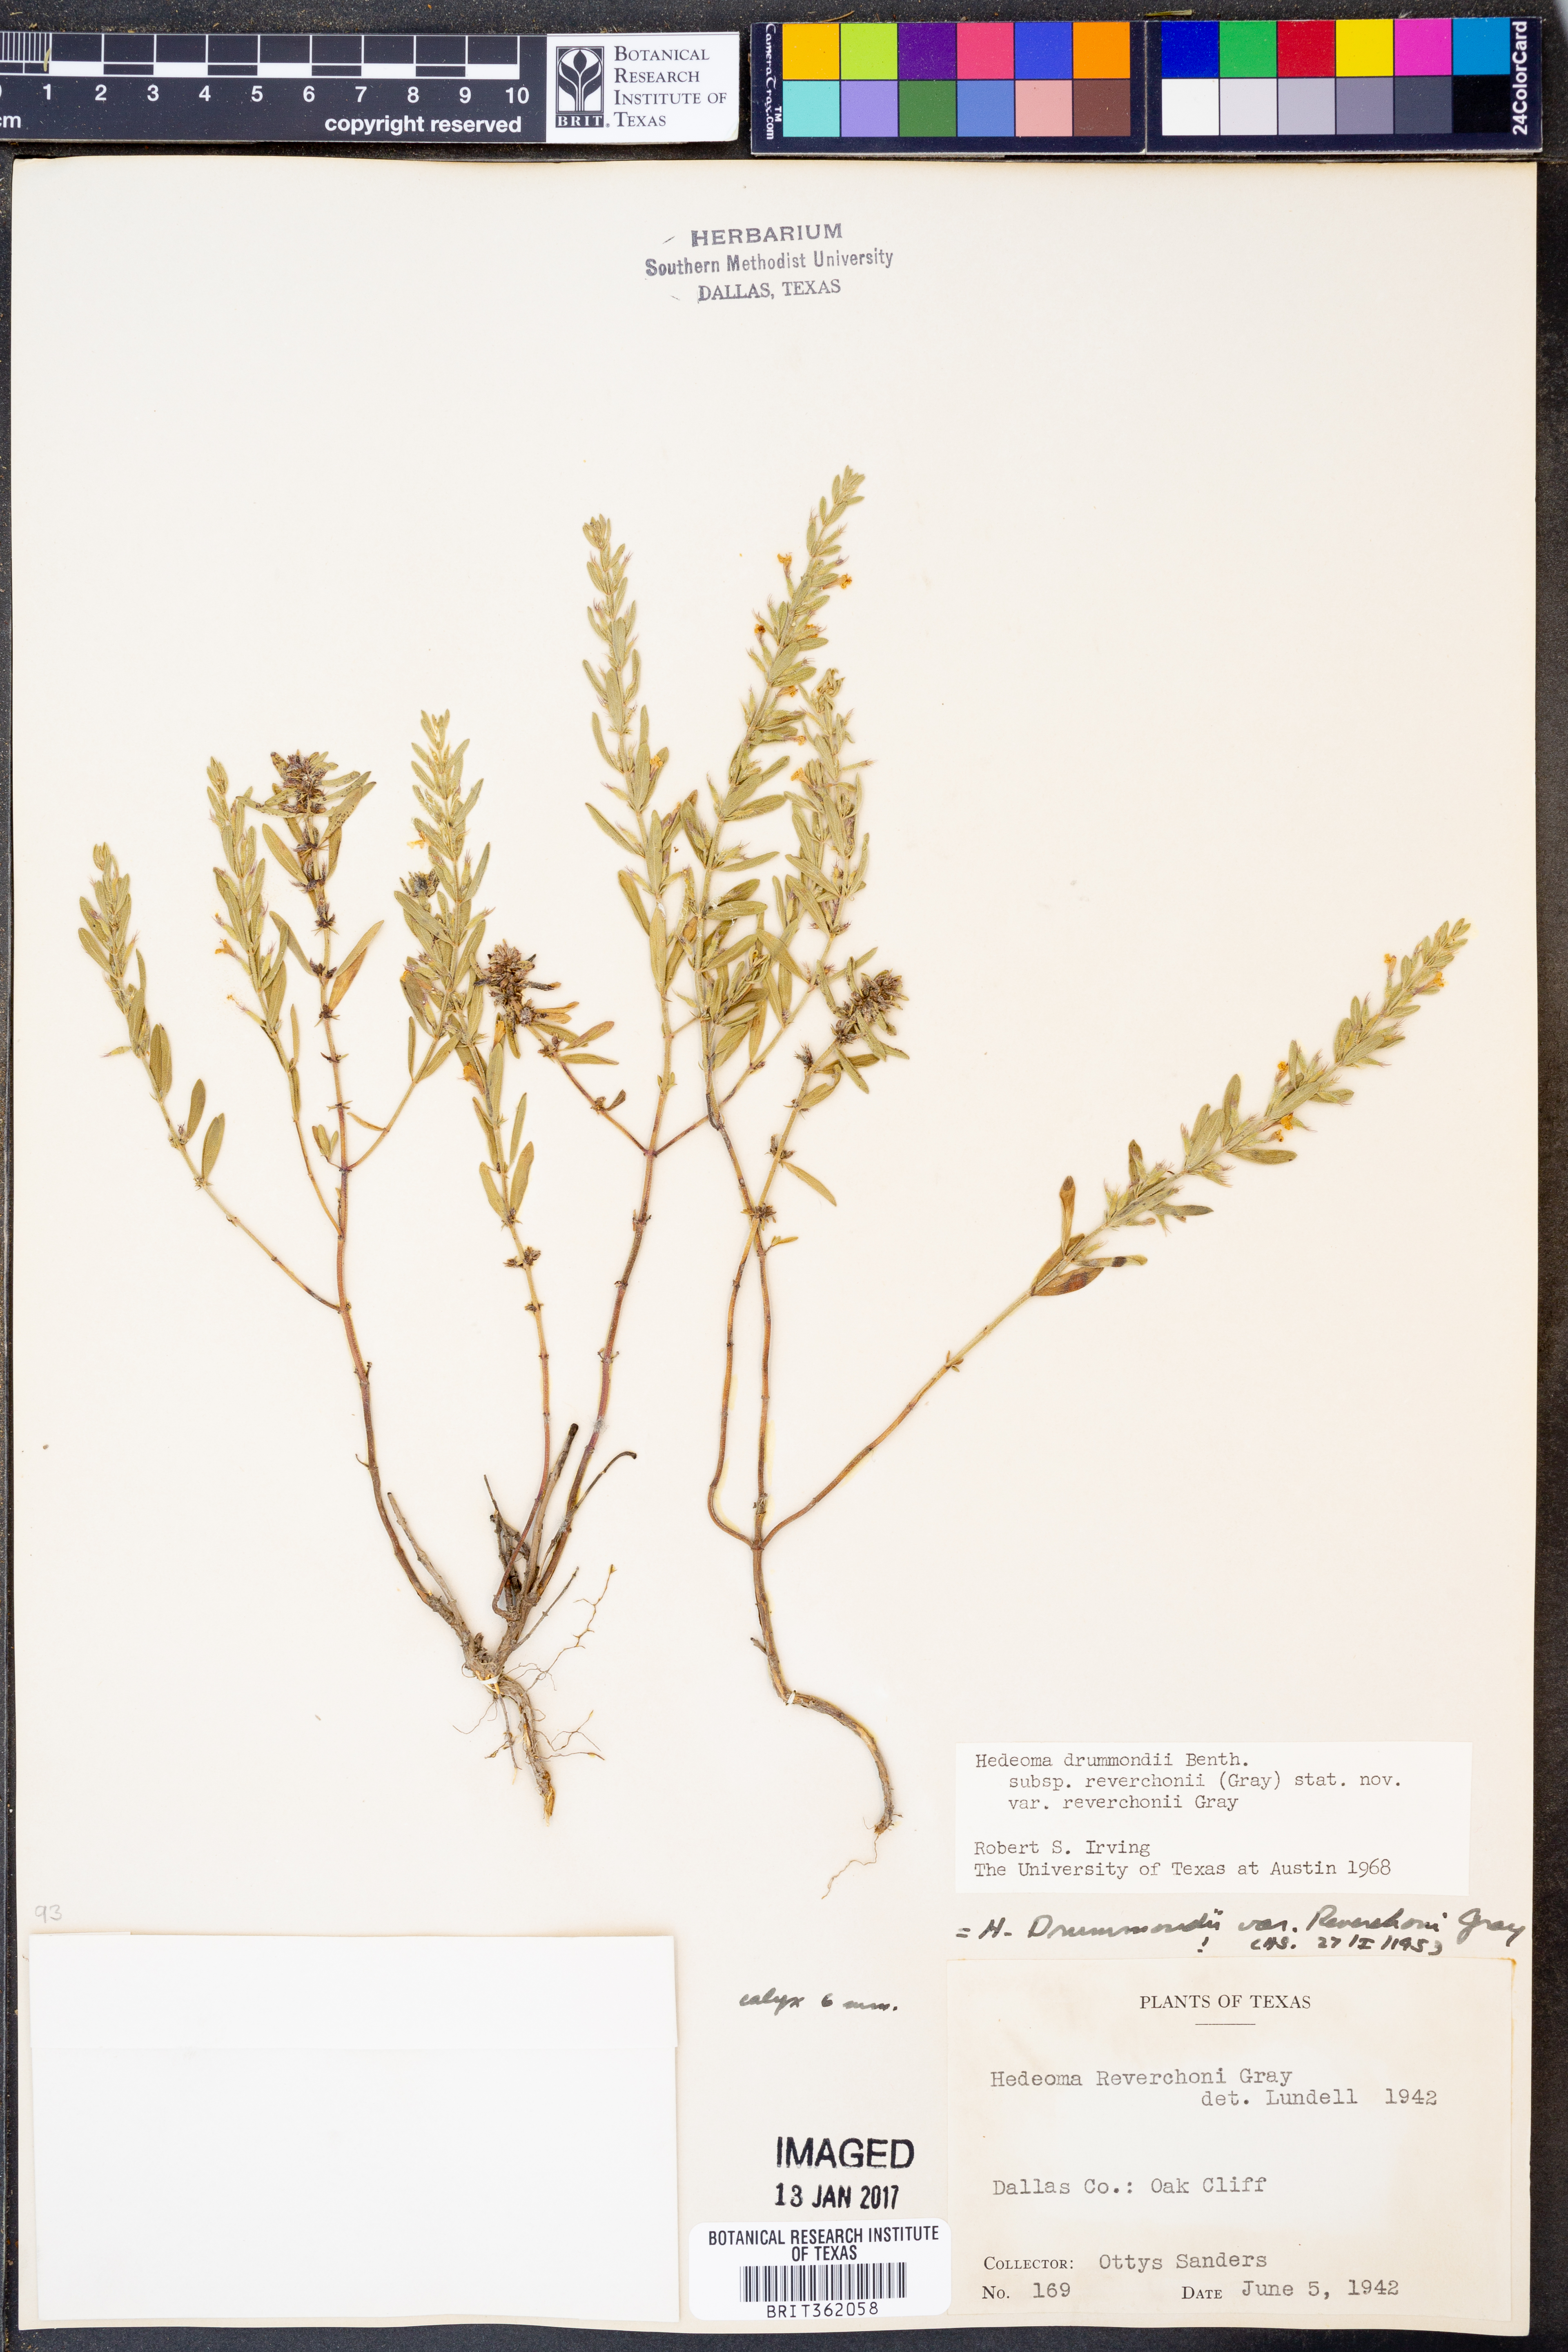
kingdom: Plantae
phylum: Tracheophyta
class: Magnoliopsida
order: Lamiales
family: Lamiaceae
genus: Hedeoma
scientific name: Hedeoma reverchonii
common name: Reverchon's false penny-royal
